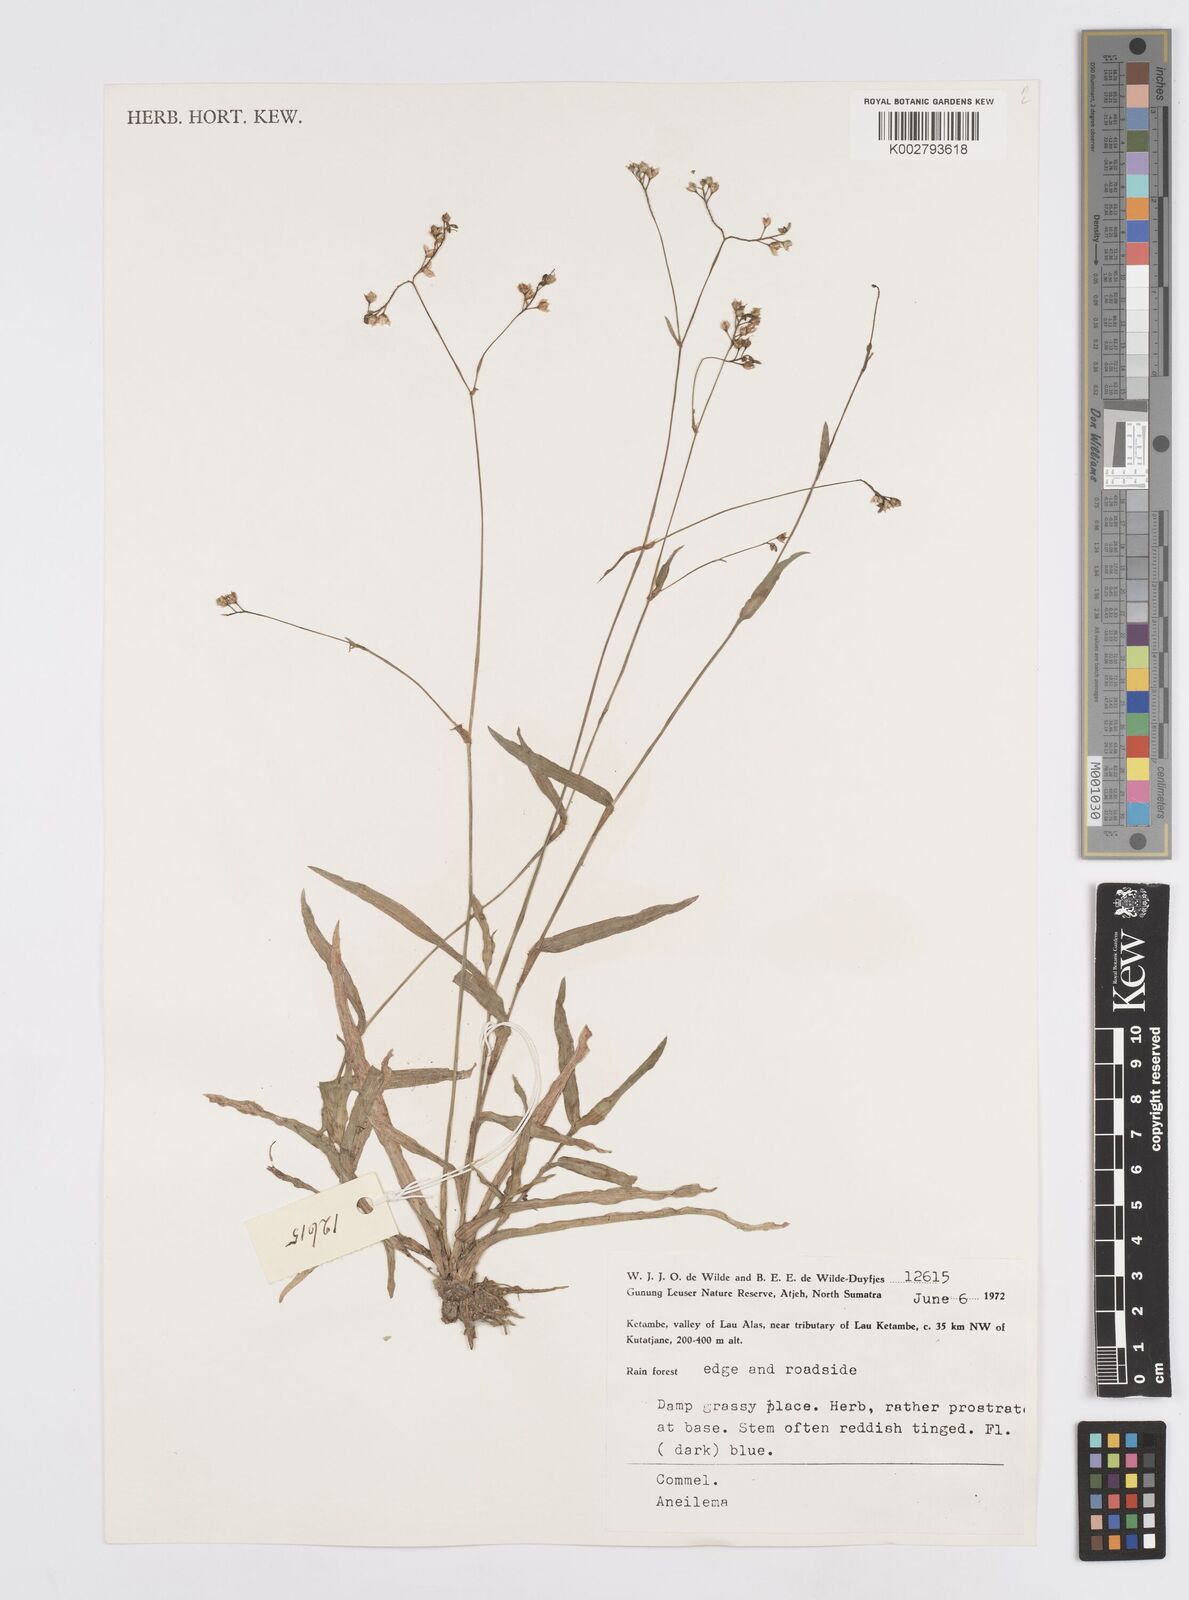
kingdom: Plantae
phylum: Tracheophyta
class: Liliopsida
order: Commelinales
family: Commelinaceae
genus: Murdannia
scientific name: Murdannia
